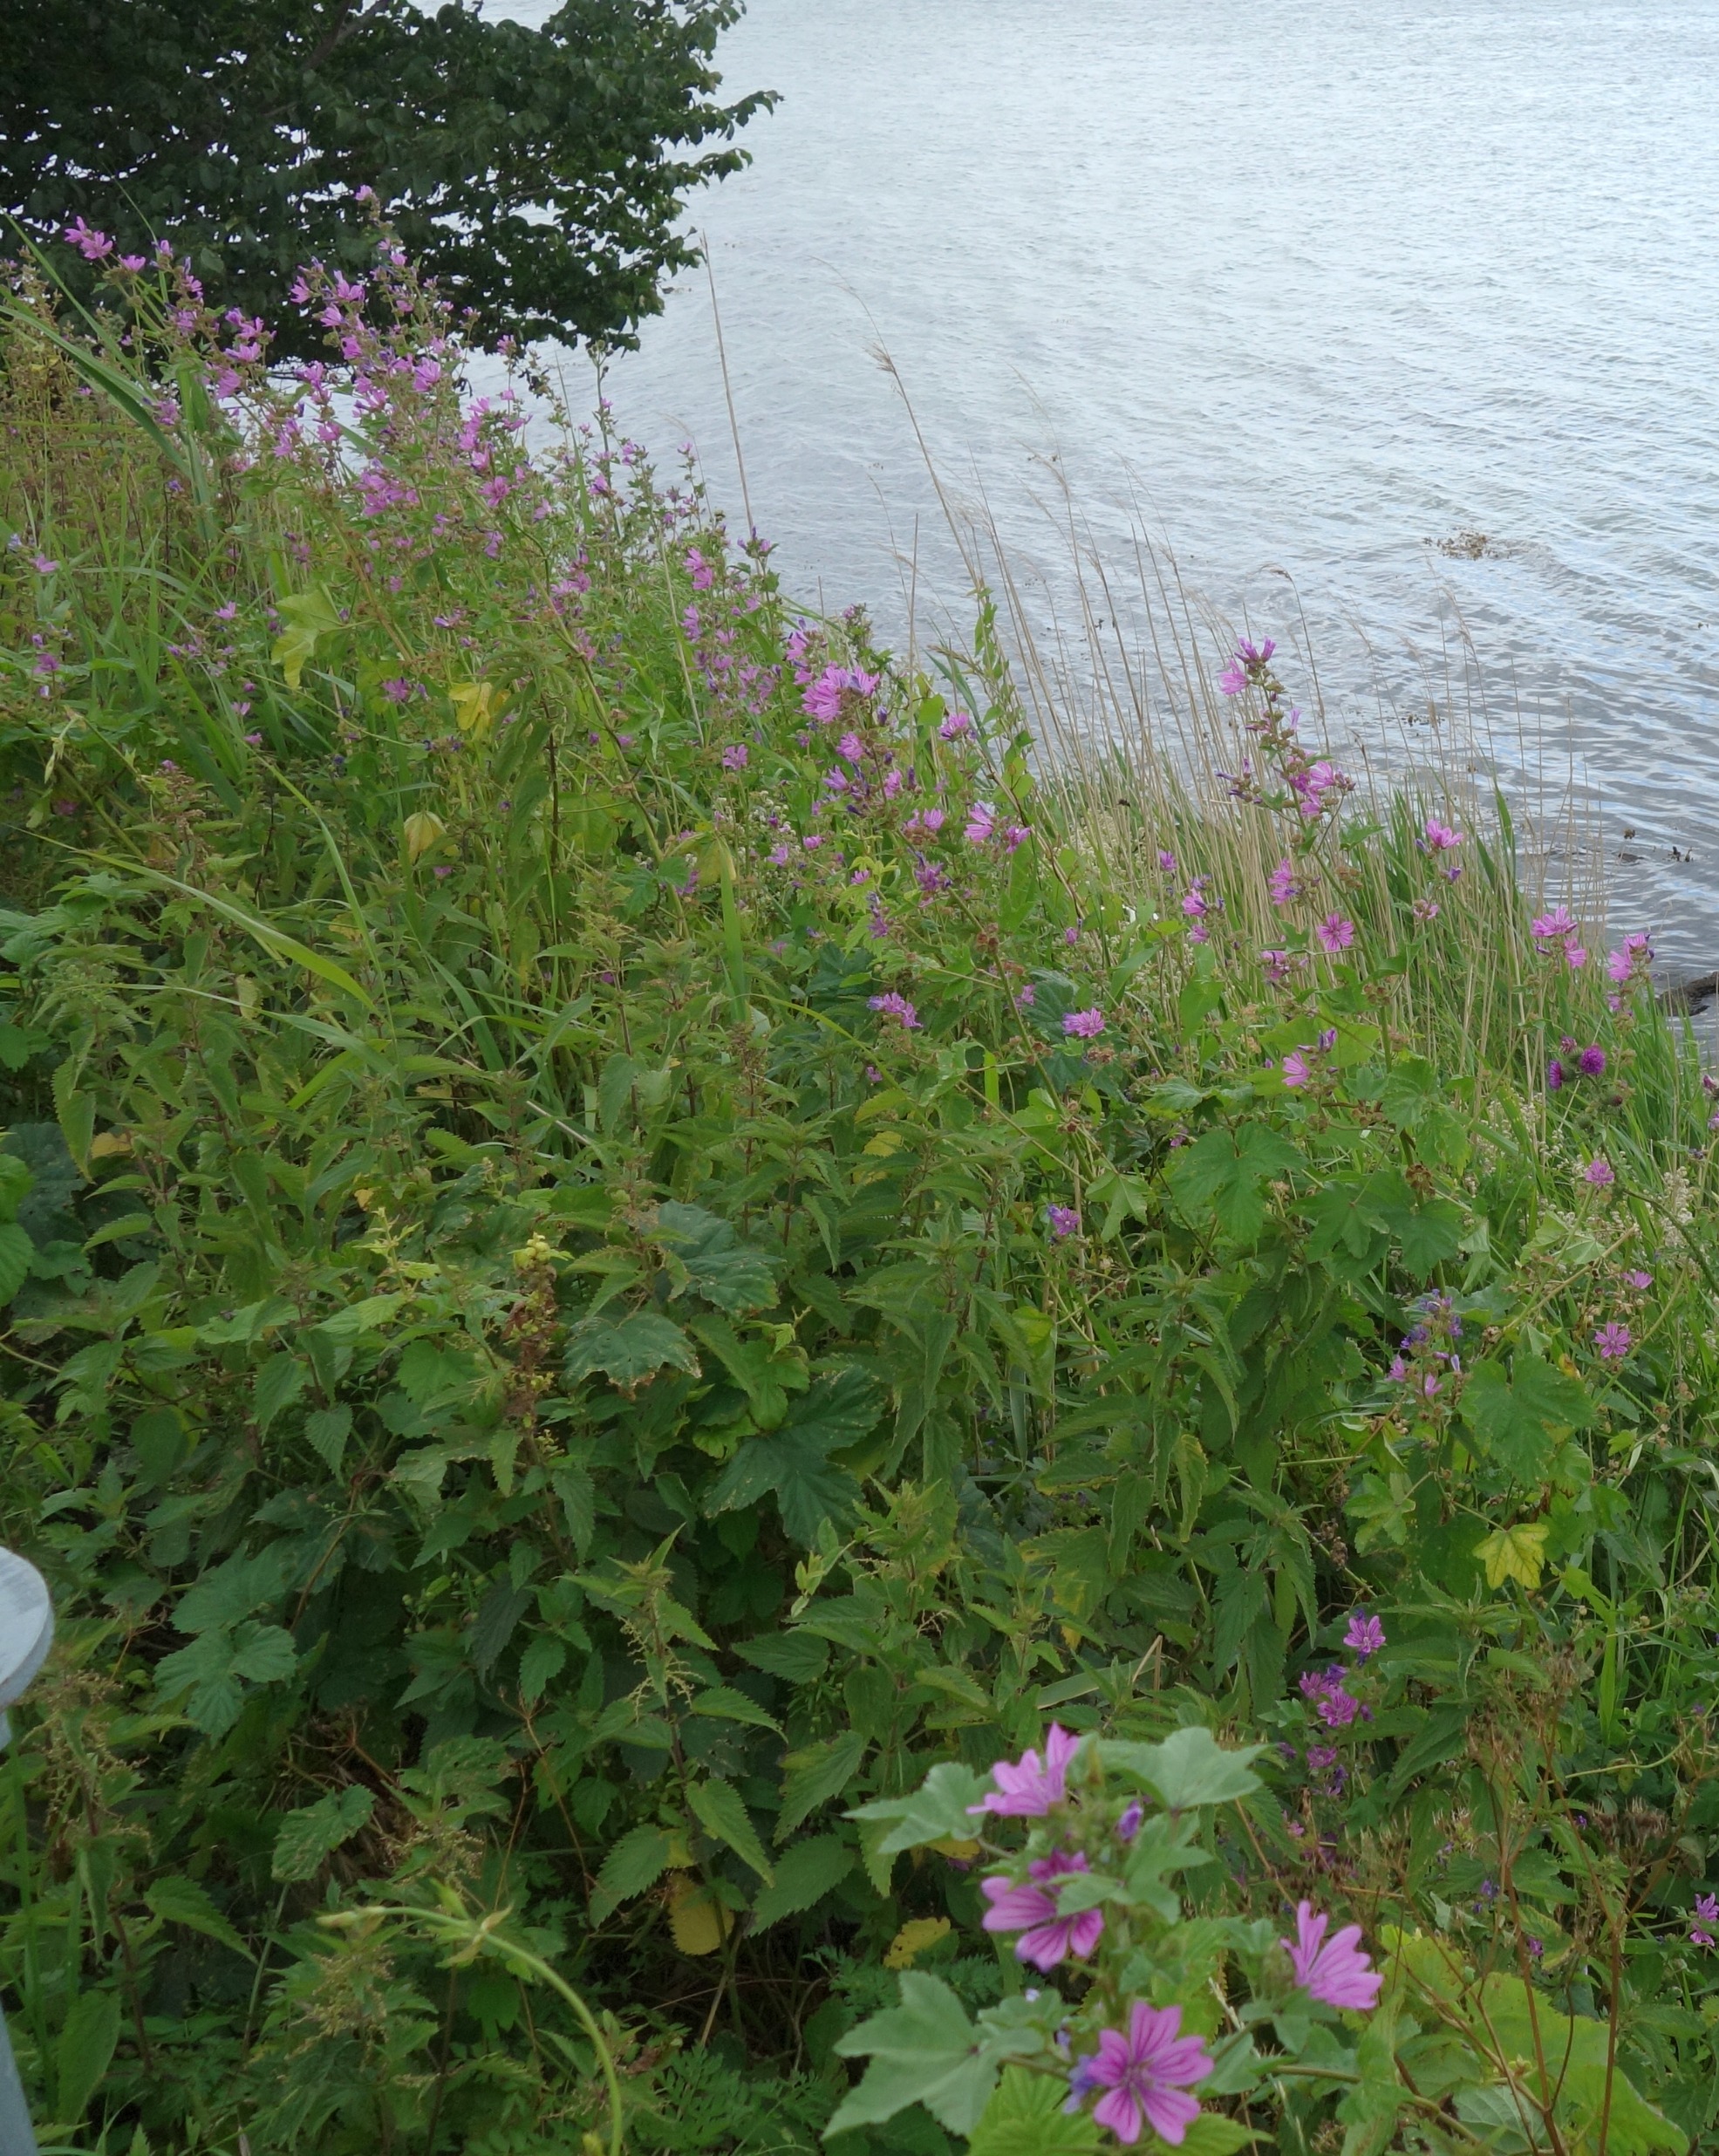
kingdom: Plantae
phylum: Tracheophyta
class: Magnoliopsida
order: Malvales
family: Malvaceae
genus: Malva
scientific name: Malva sylvestris
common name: Almindelig katost
